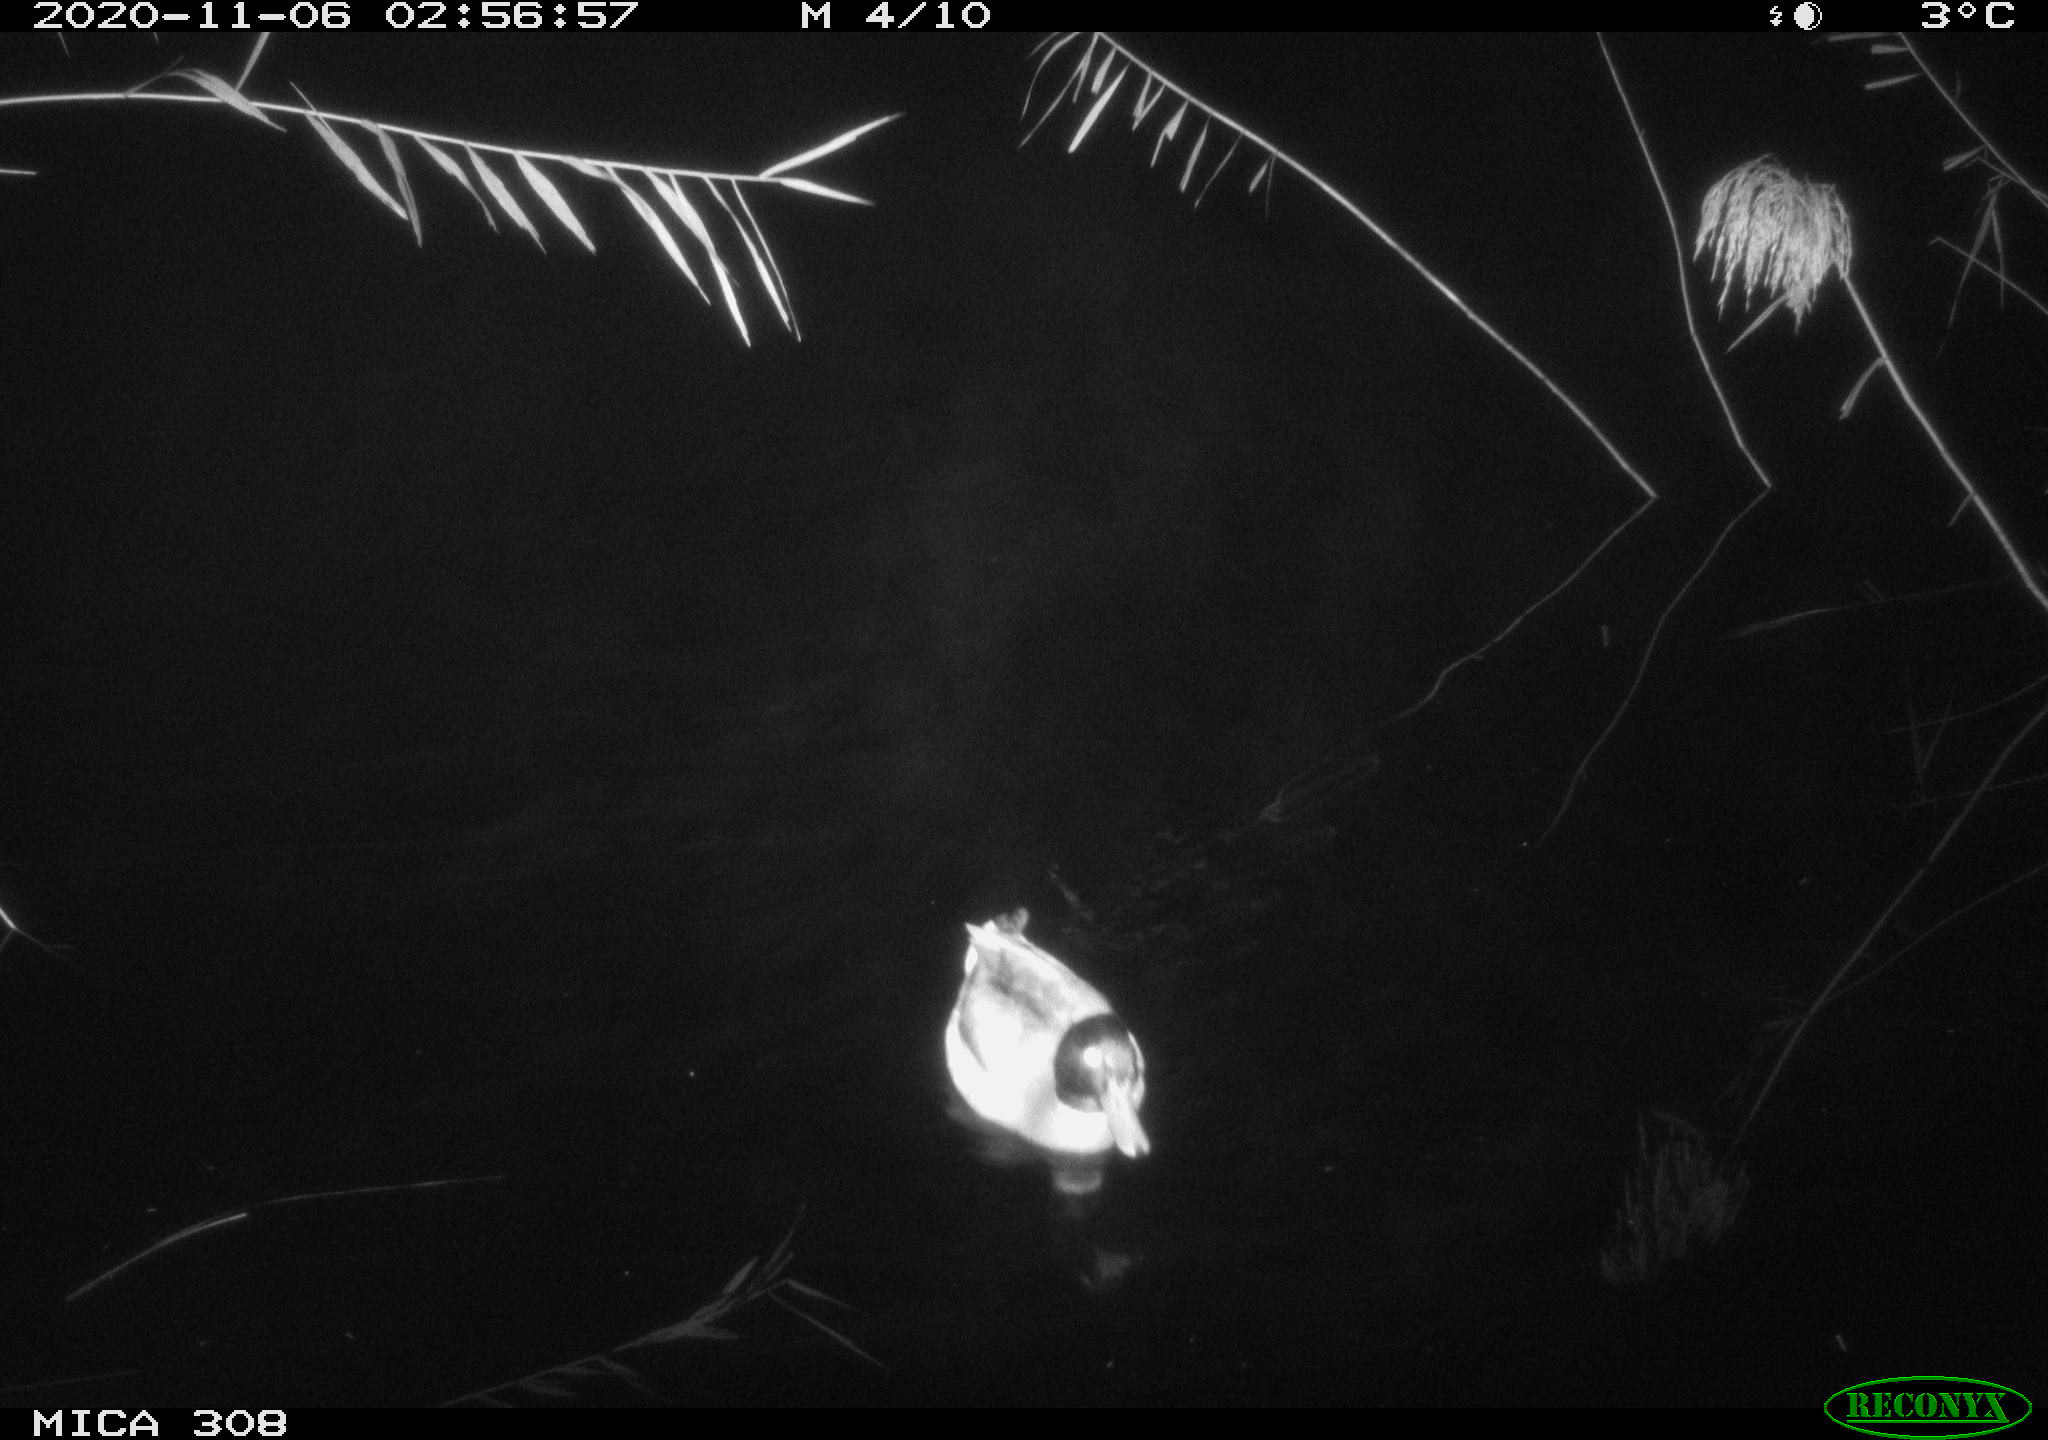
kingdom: Animalia
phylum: Chordata
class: Aves
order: Anseriformes
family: Anatidae
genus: Anas
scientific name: Anas platyrhynchos
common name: Mallard
